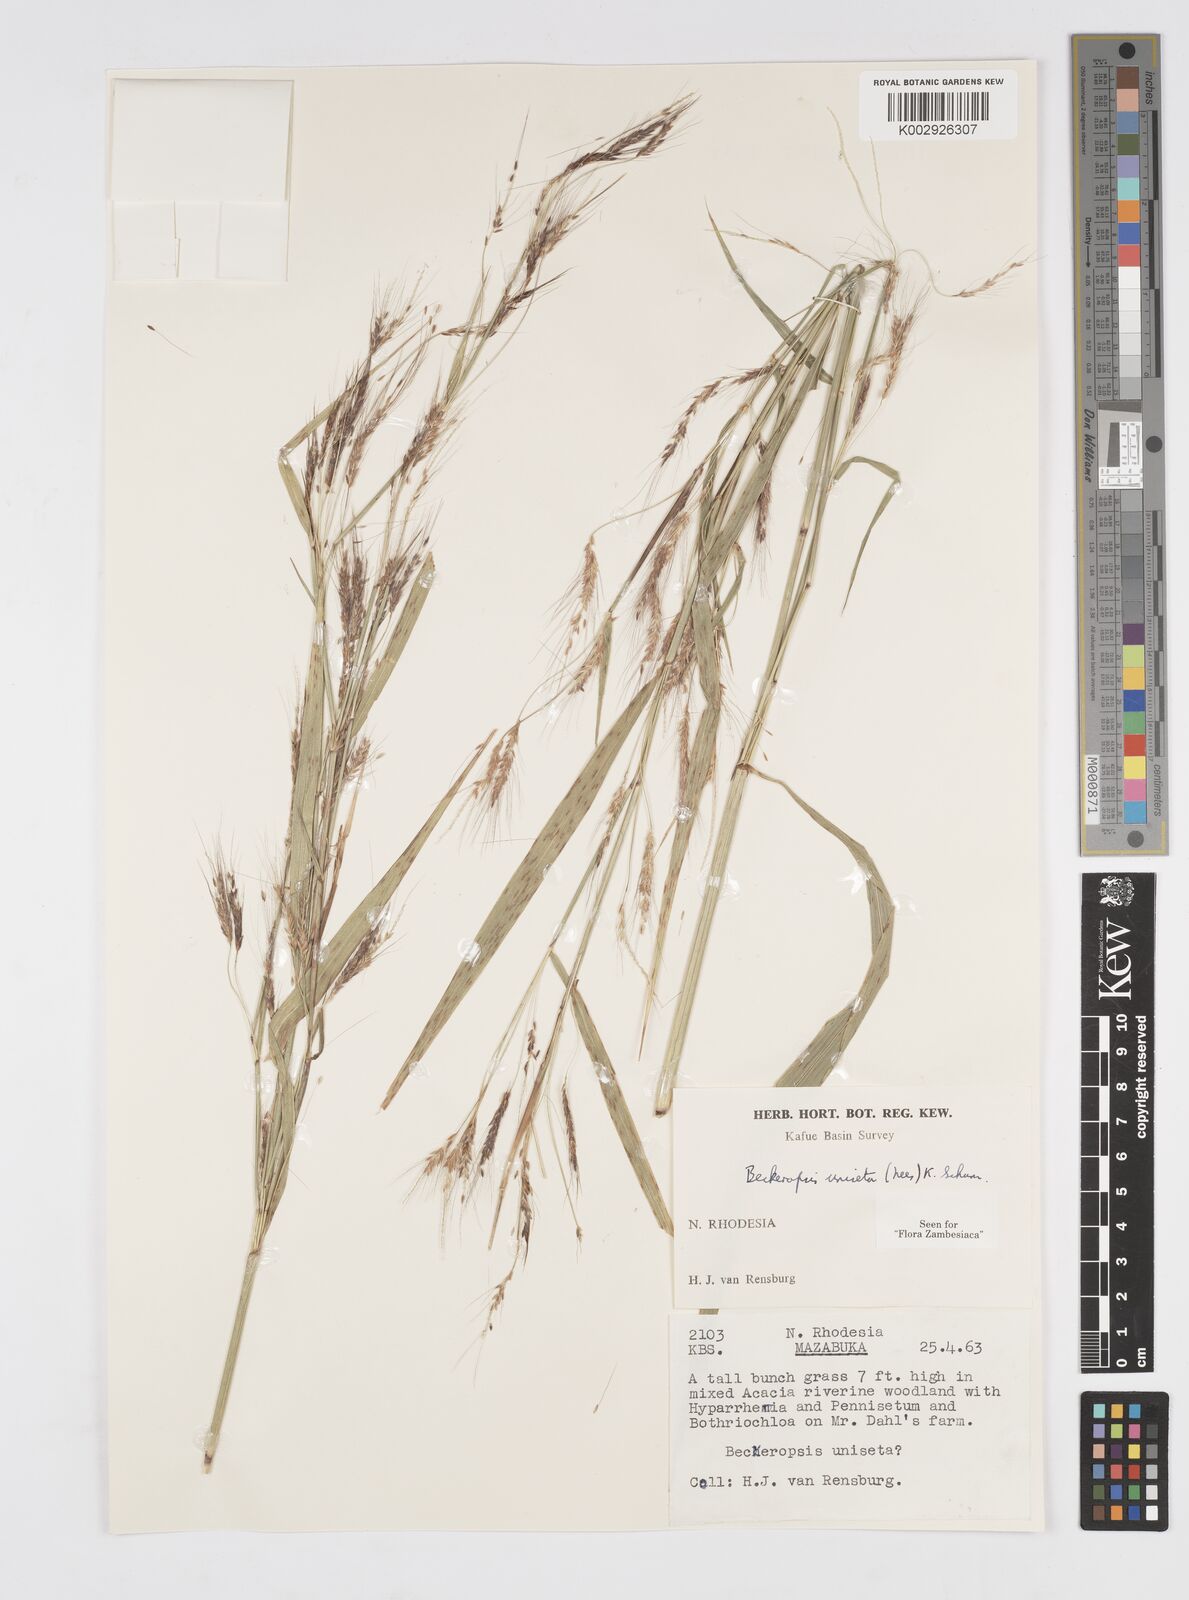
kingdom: Plantae
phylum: Tracheophyta
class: Liliopsida
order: Poales
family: Poaceae
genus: Cenchrus
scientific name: Cenchrus unisetus
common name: Natal grass
